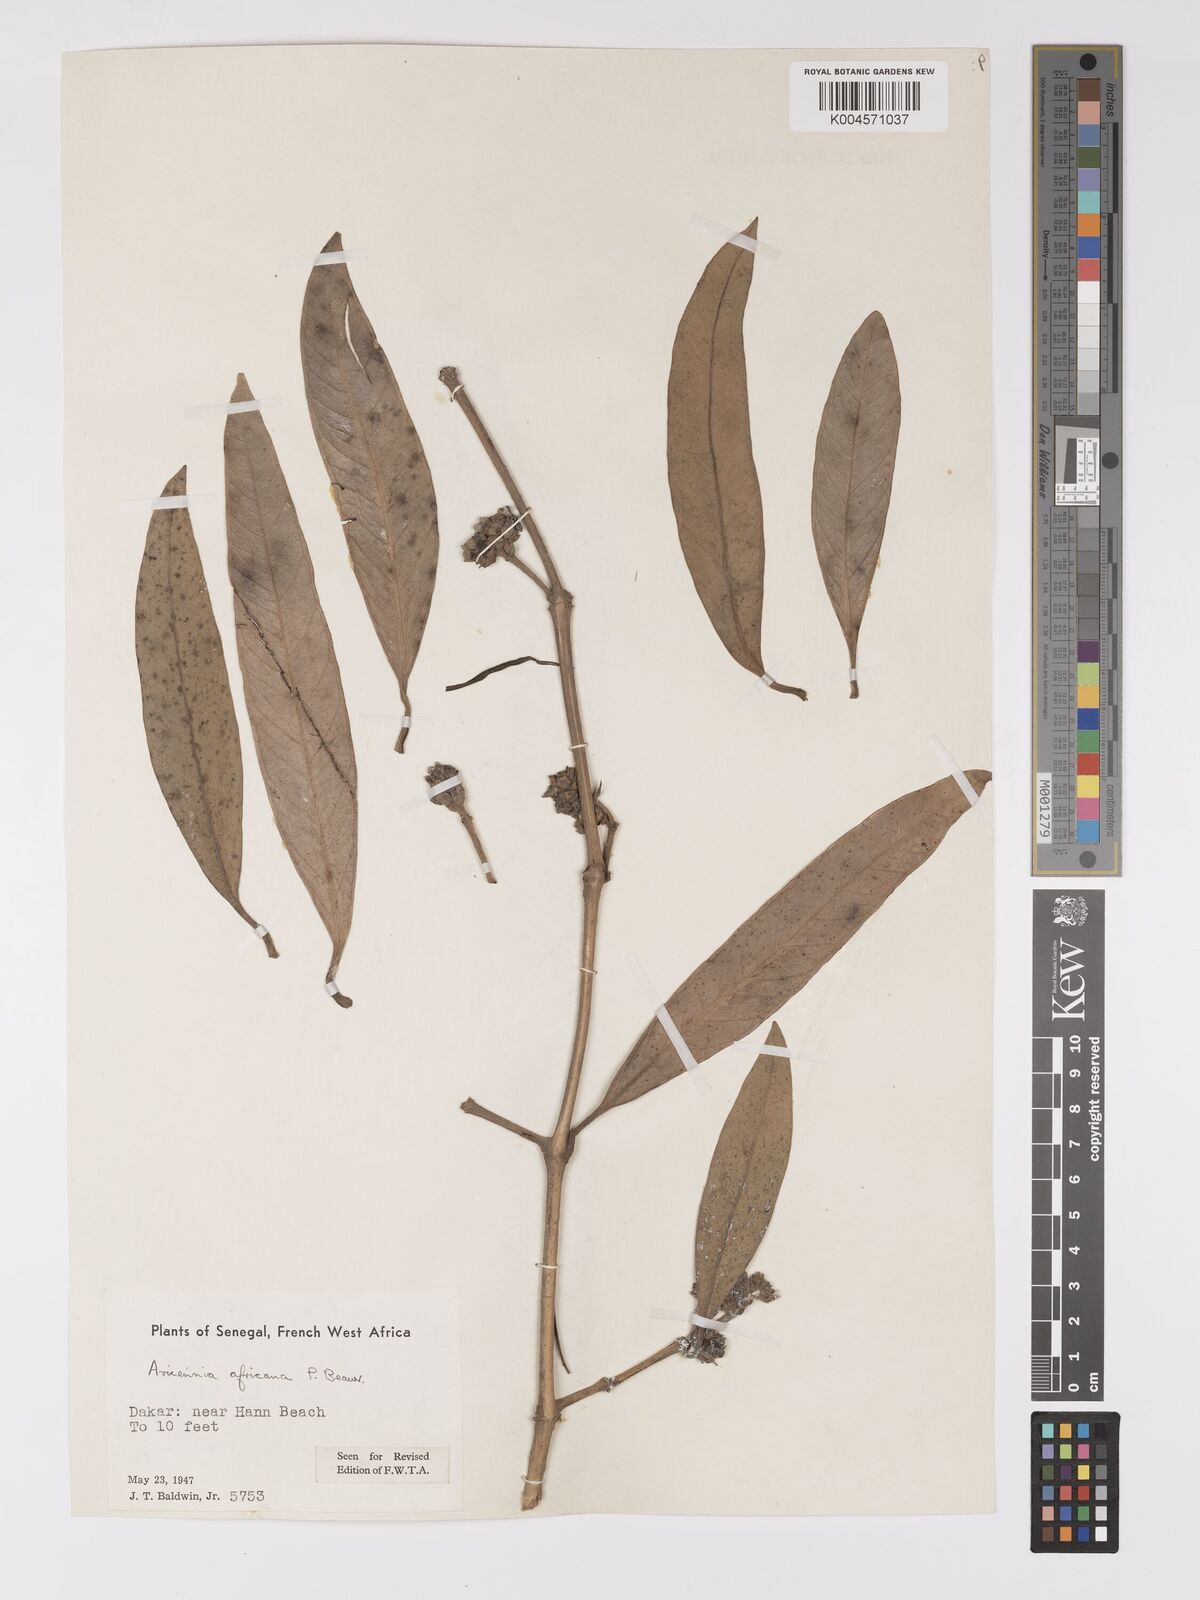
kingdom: Plantae
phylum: Tracheophyta
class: Magnoliopsida
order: Lamiales
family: Acanthaceae
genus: Avicennia
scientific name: Avicennia germinans
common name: Black mangrove
